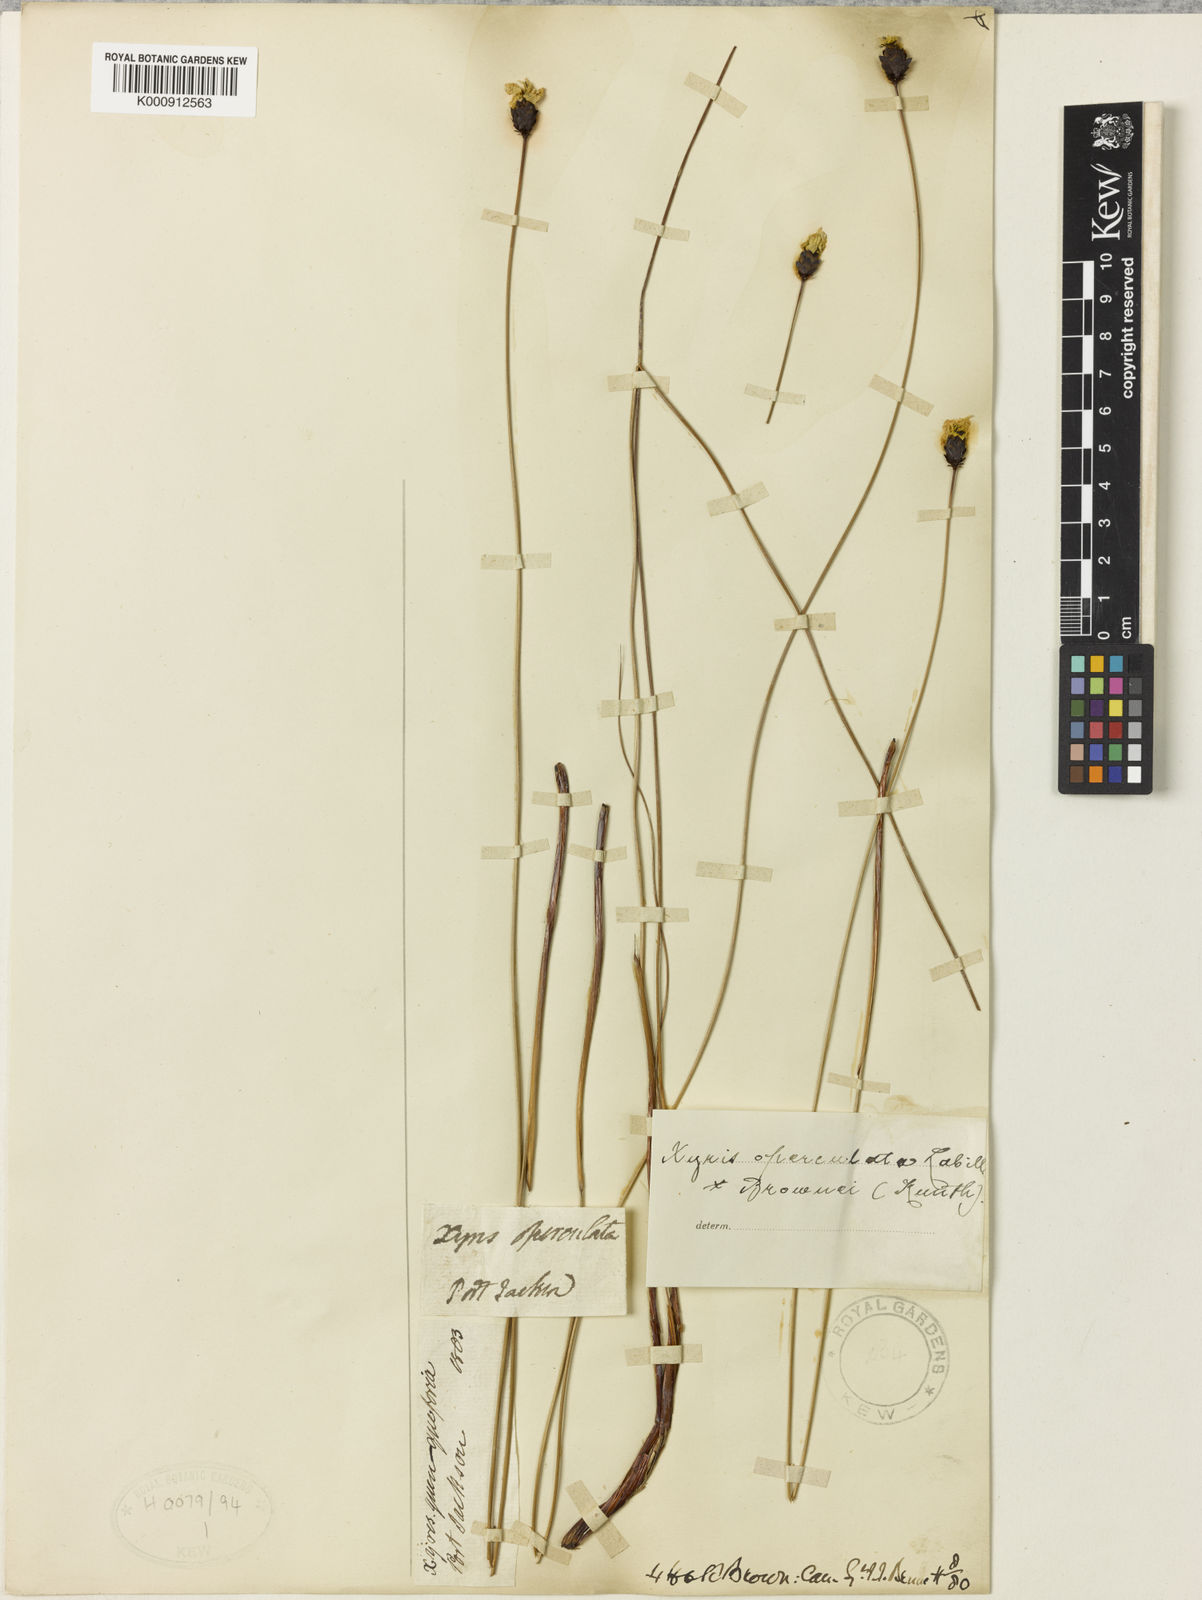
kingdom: Plantae
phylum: Tracheophyta
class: Liliopsida
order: Poales
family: Xyridaceae
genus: Xyris
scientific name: Xyris operculata
